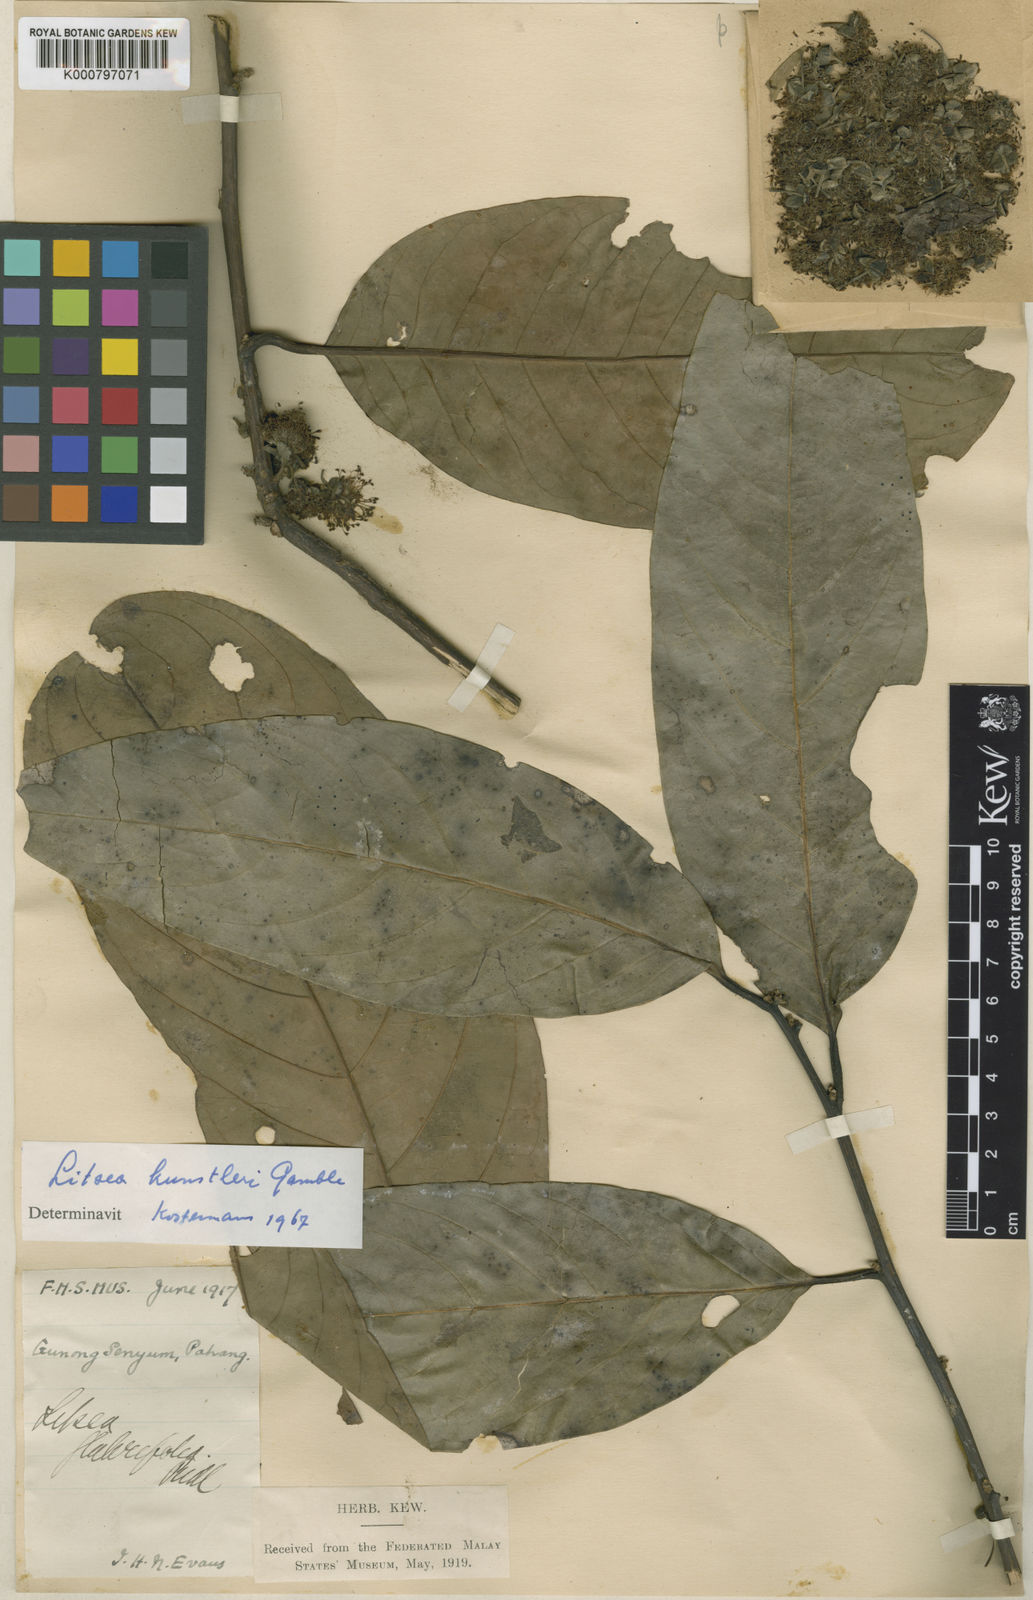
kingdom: Plantae
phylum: Tracheophyta
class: Magnoliopsida
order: Laurales
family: Lauraceae
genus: Litsea
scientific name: Litsea accedens
